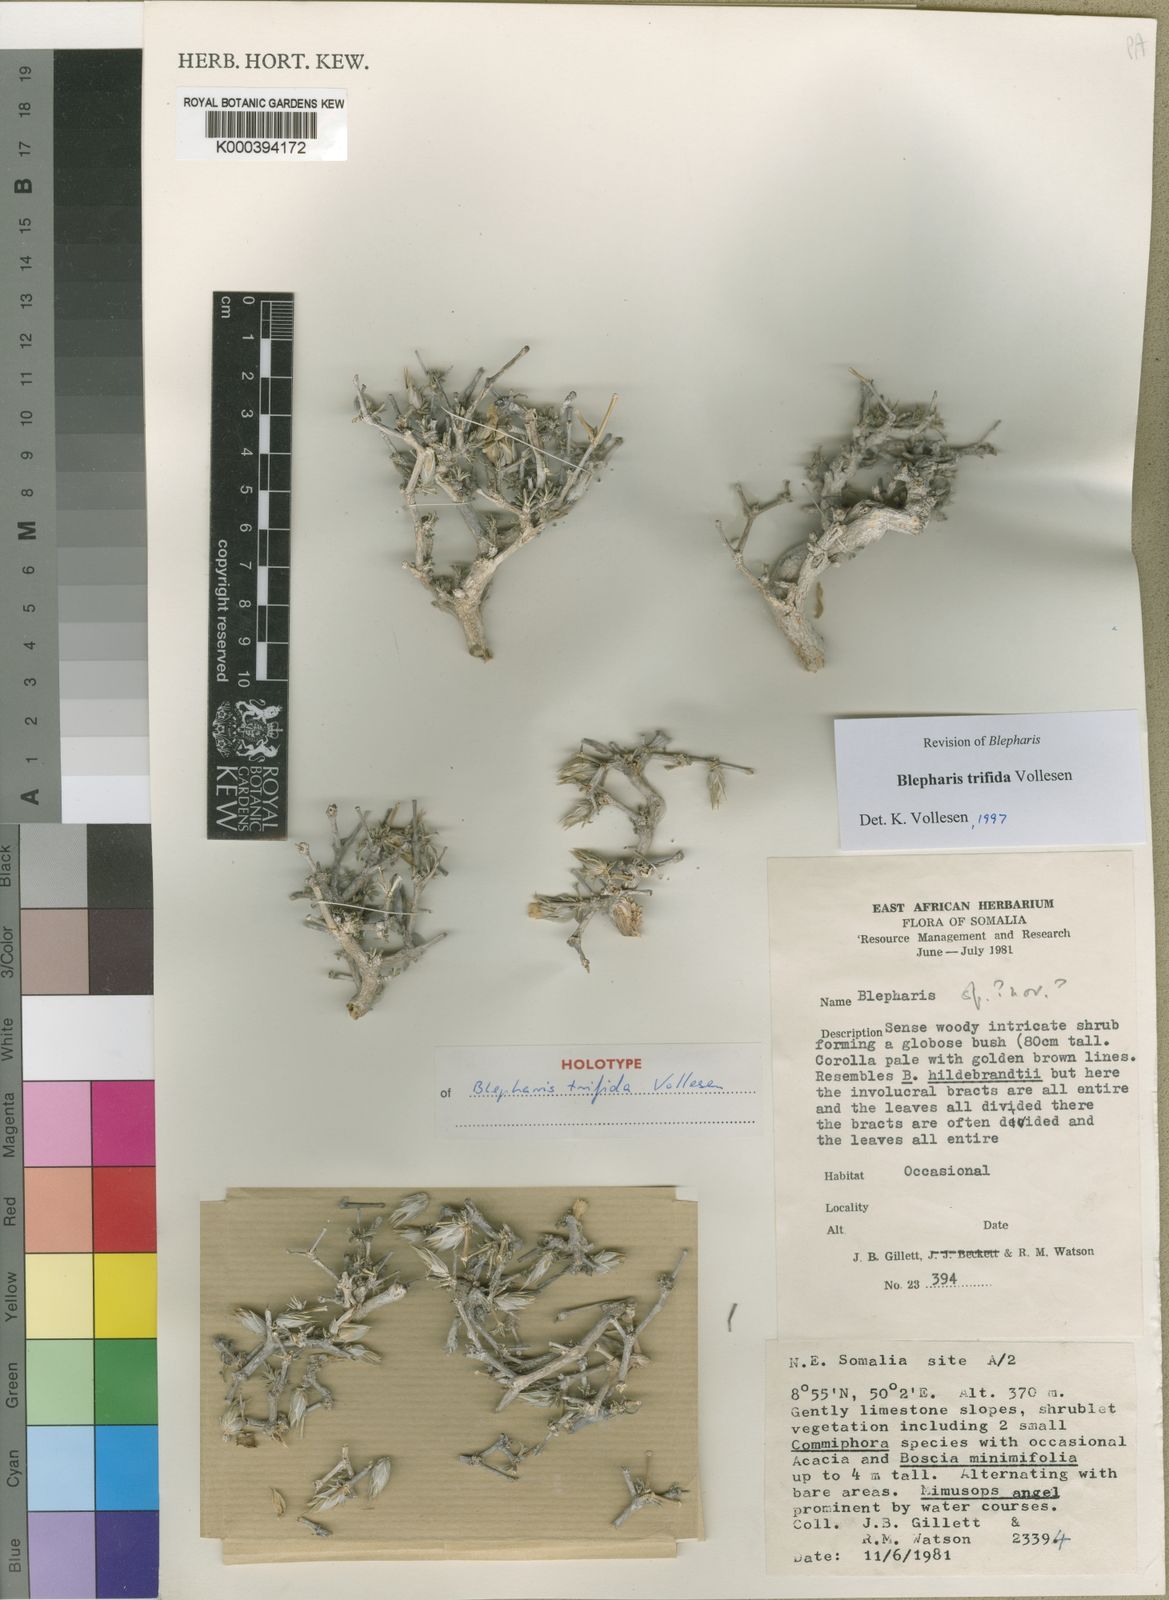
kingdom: Plantae
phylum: Tracheophyta
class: Magnoliopsida
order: Lamiales
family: Acanthaceae
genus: Blepharis
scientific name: Blepharis trifida
